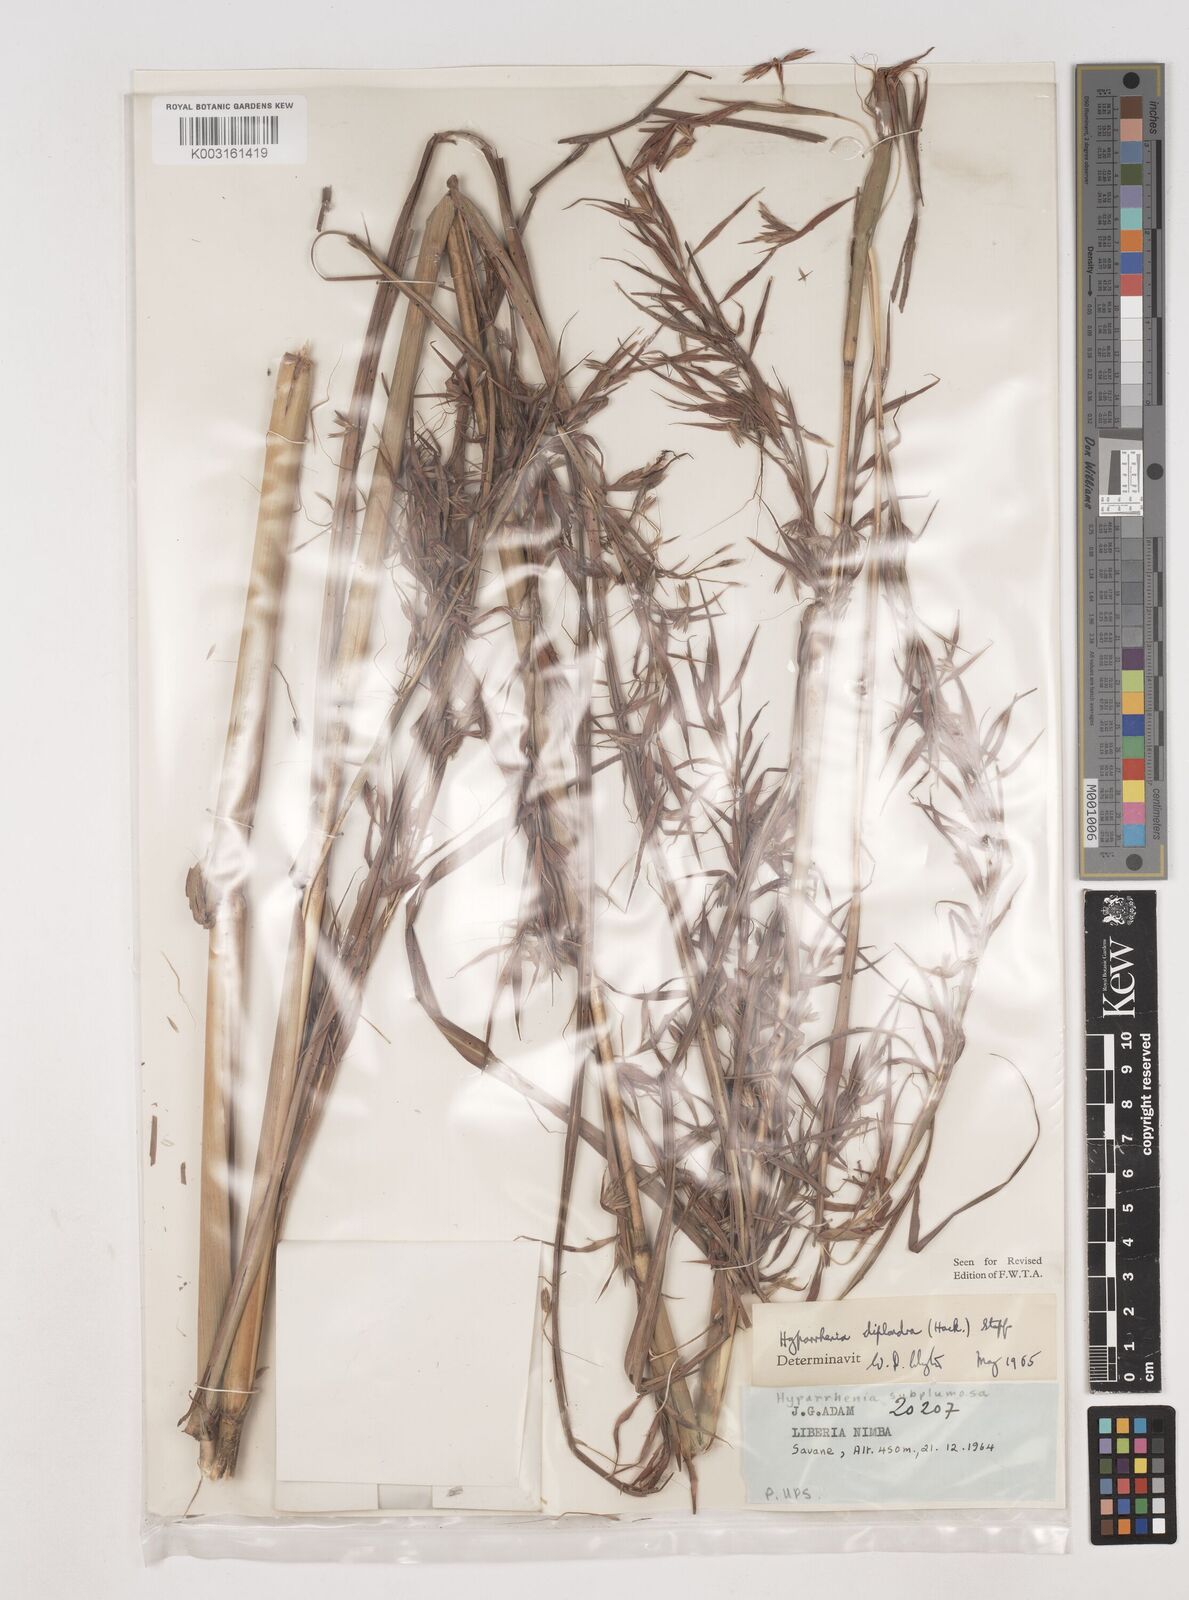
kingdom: Plantae
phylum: Tracheophyta
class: Liliopsida
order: Poales
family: Poaceae
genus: Hyparrhenia
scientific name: Hyparrhenia diplandra
